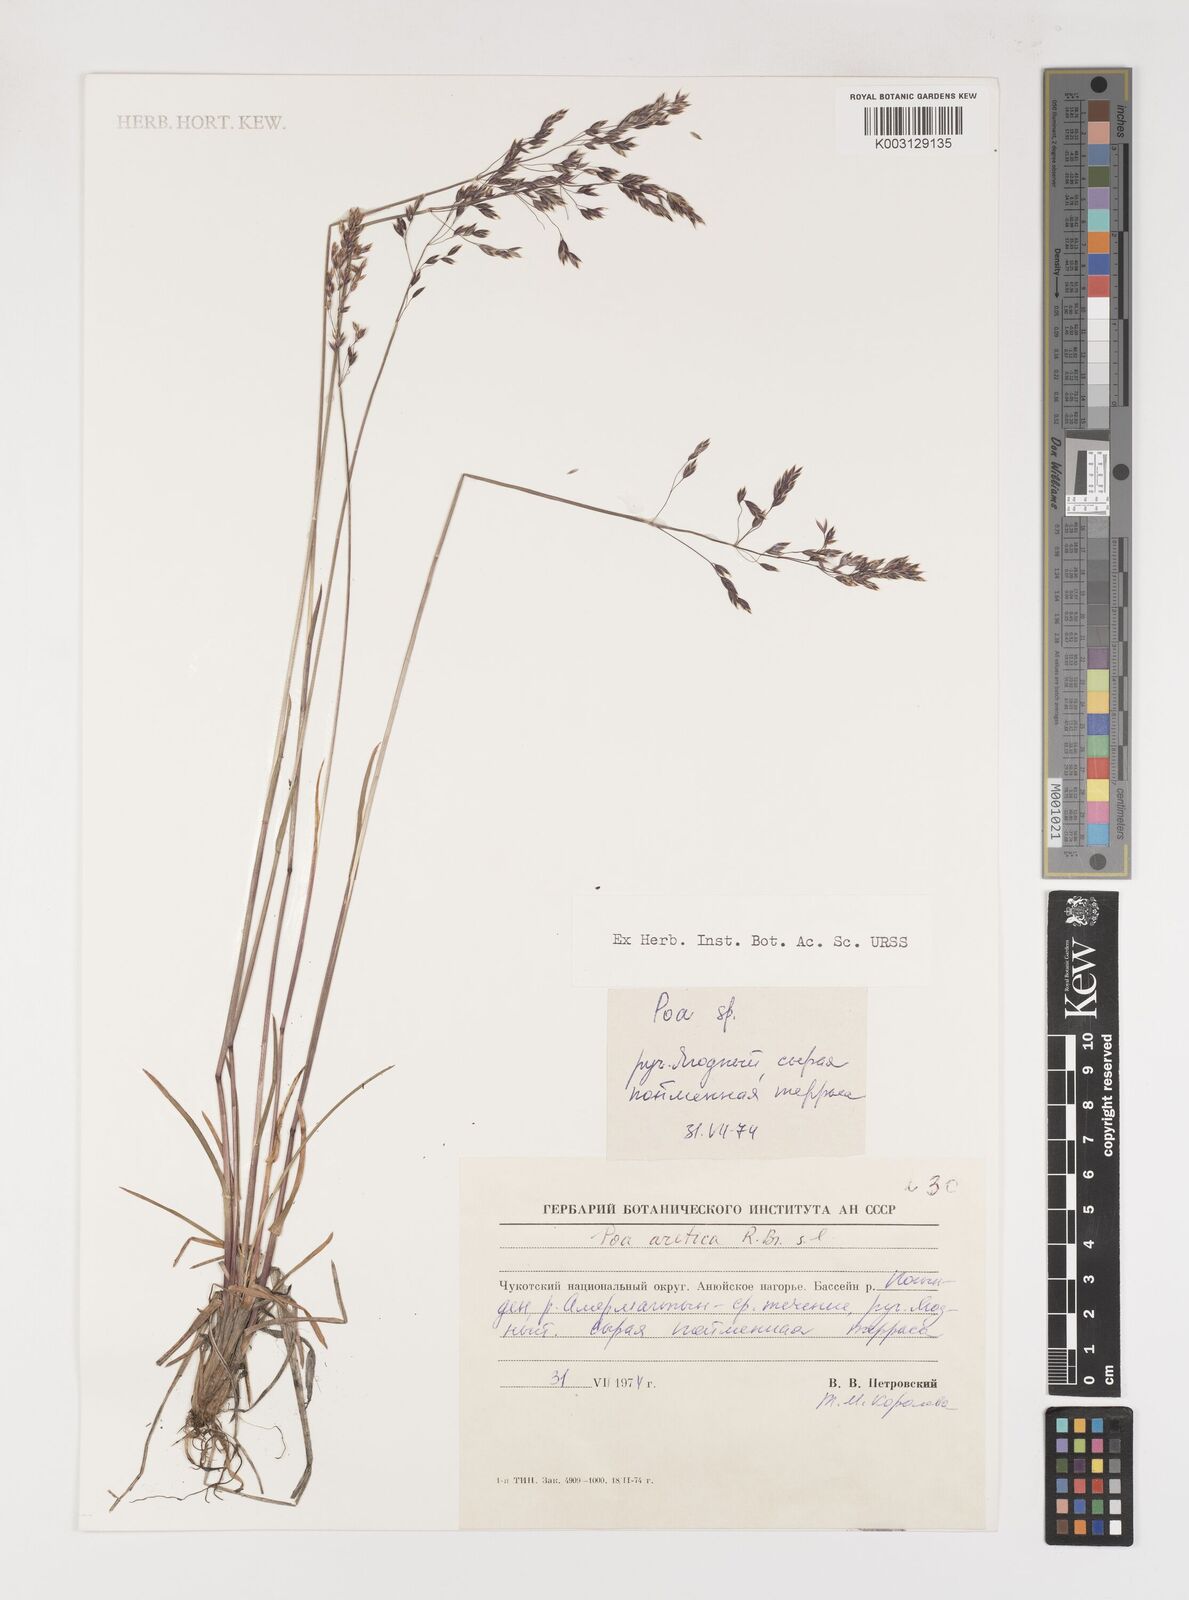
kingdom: Plantae
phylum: Tracheophyta
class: Liliopsida
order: Poales
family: Poaceae
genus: Poa
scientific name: Poa arctica
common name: Arctic bluegrass
